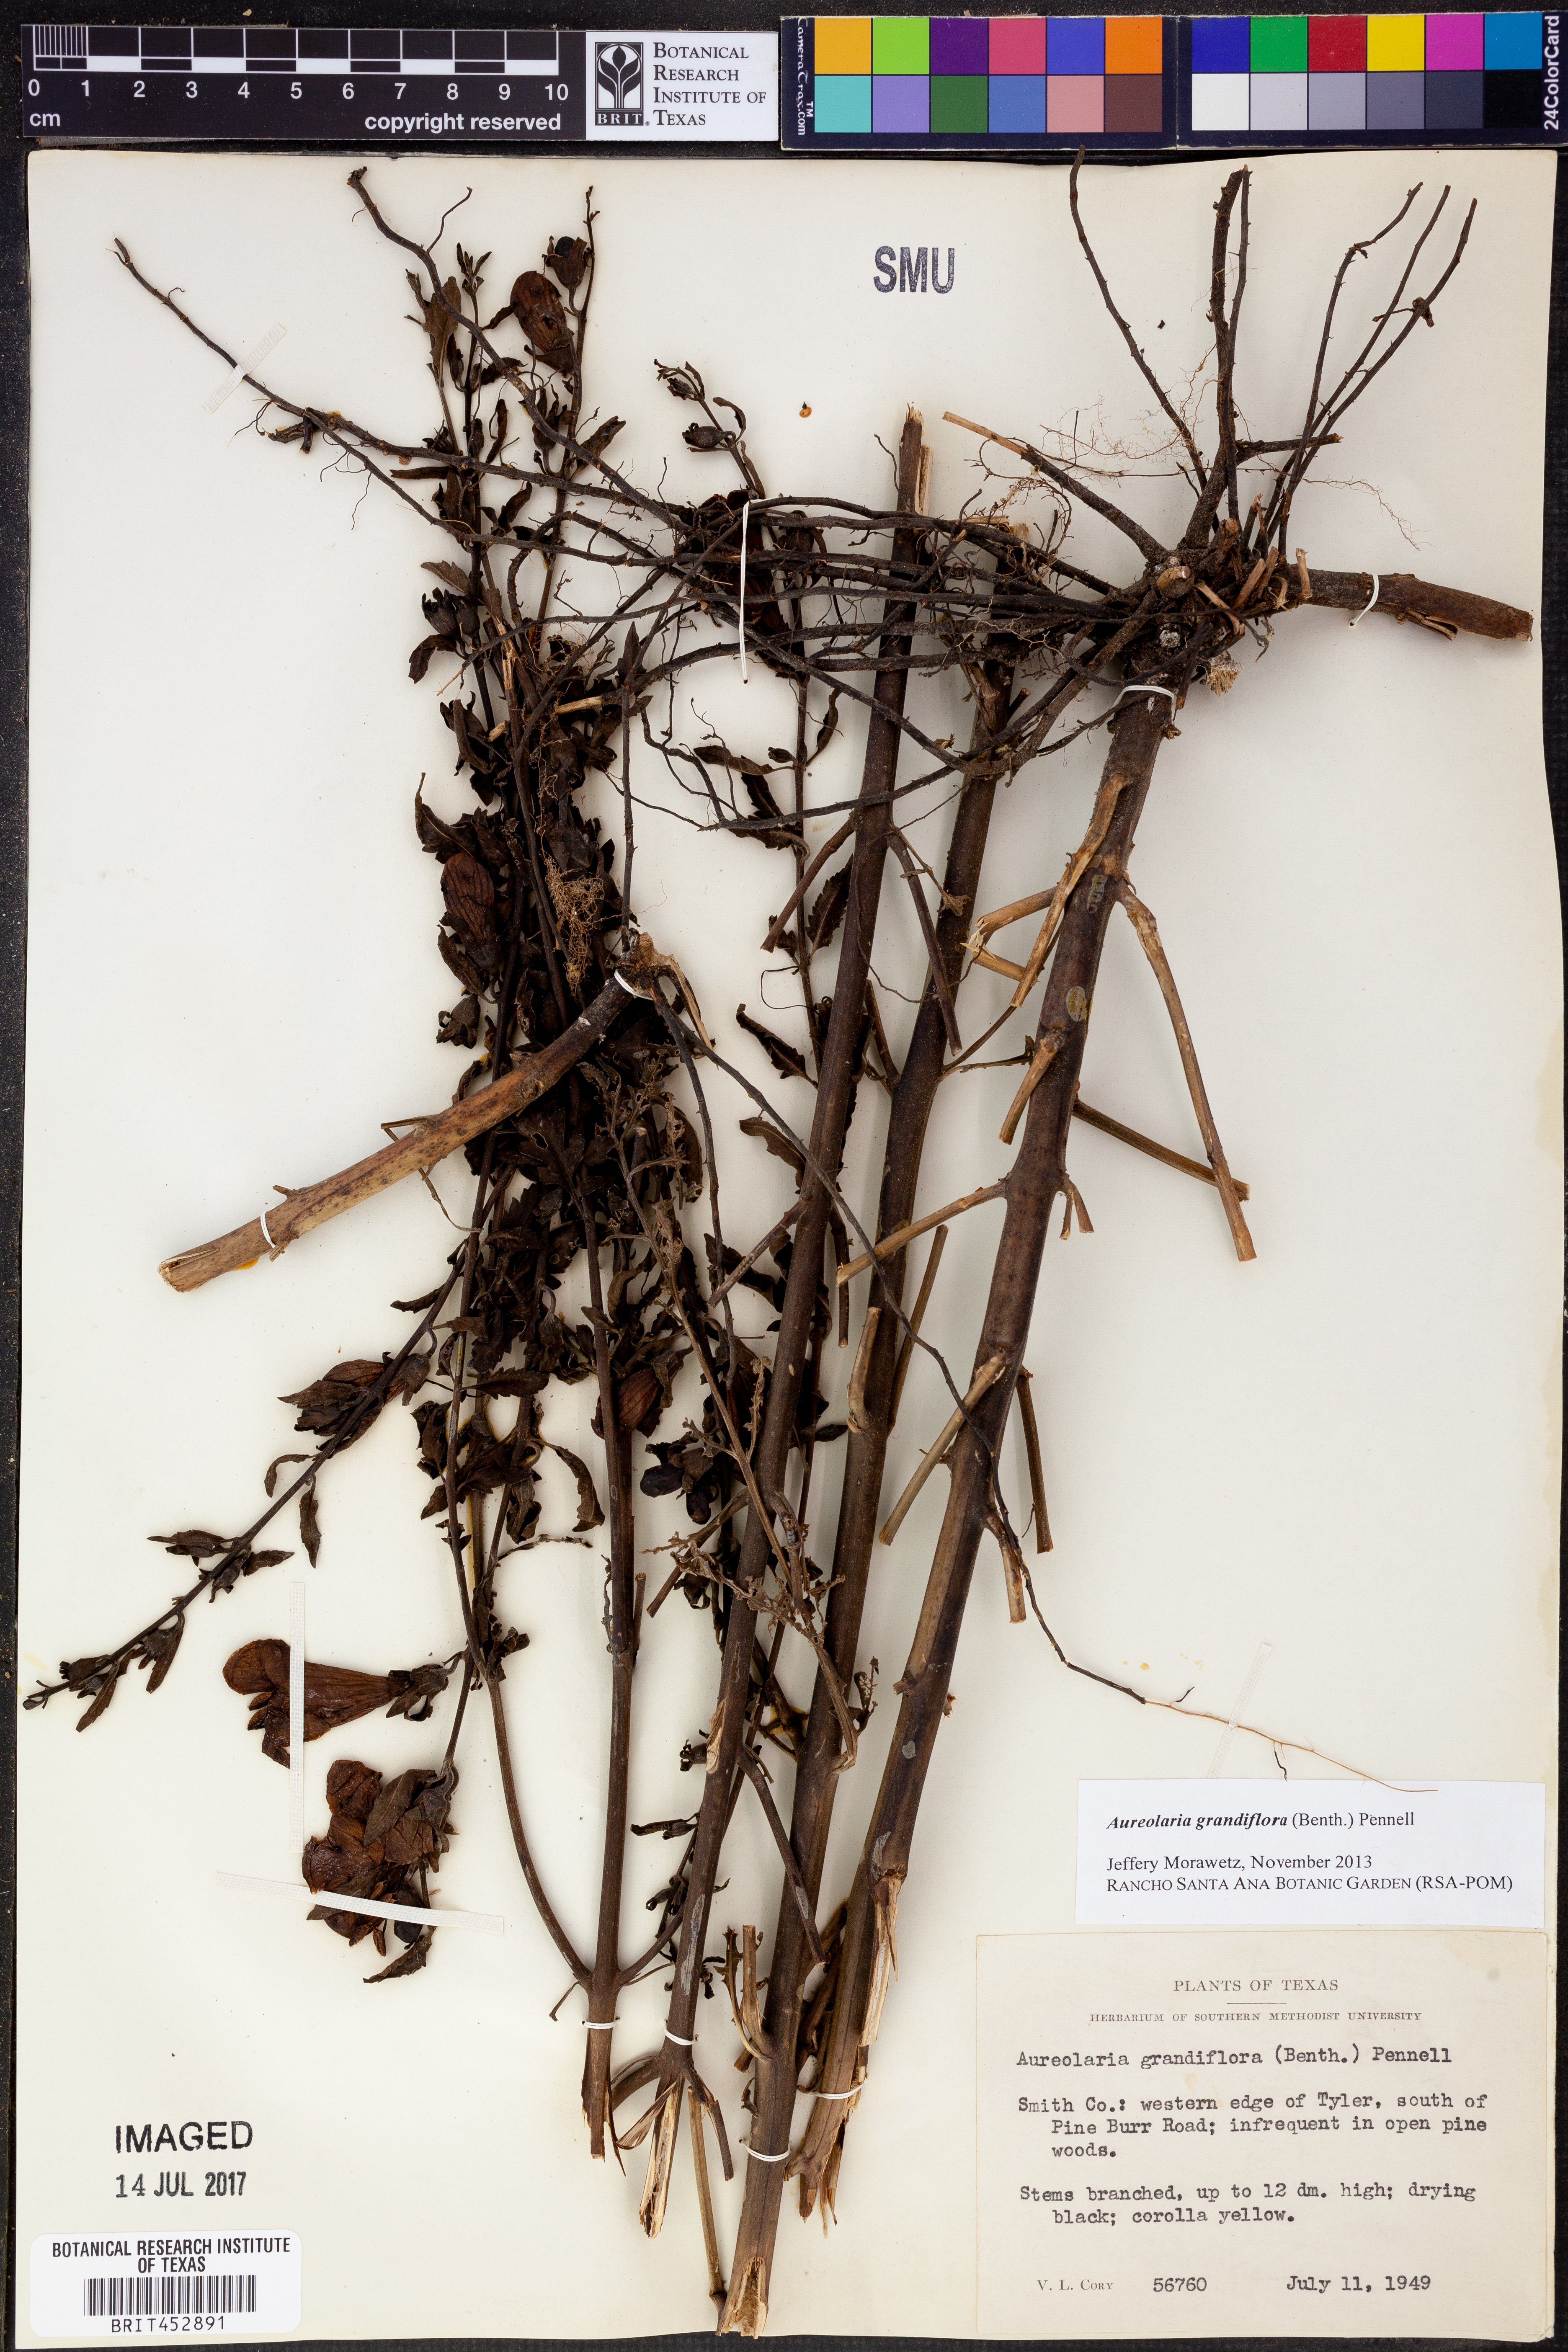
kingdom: Plantae
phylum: Tracheophyta
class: Magnoliopsida
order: Lamiales
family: Orobanchaceae
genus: Aureolaria
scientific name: Aureolaria grandiflora
